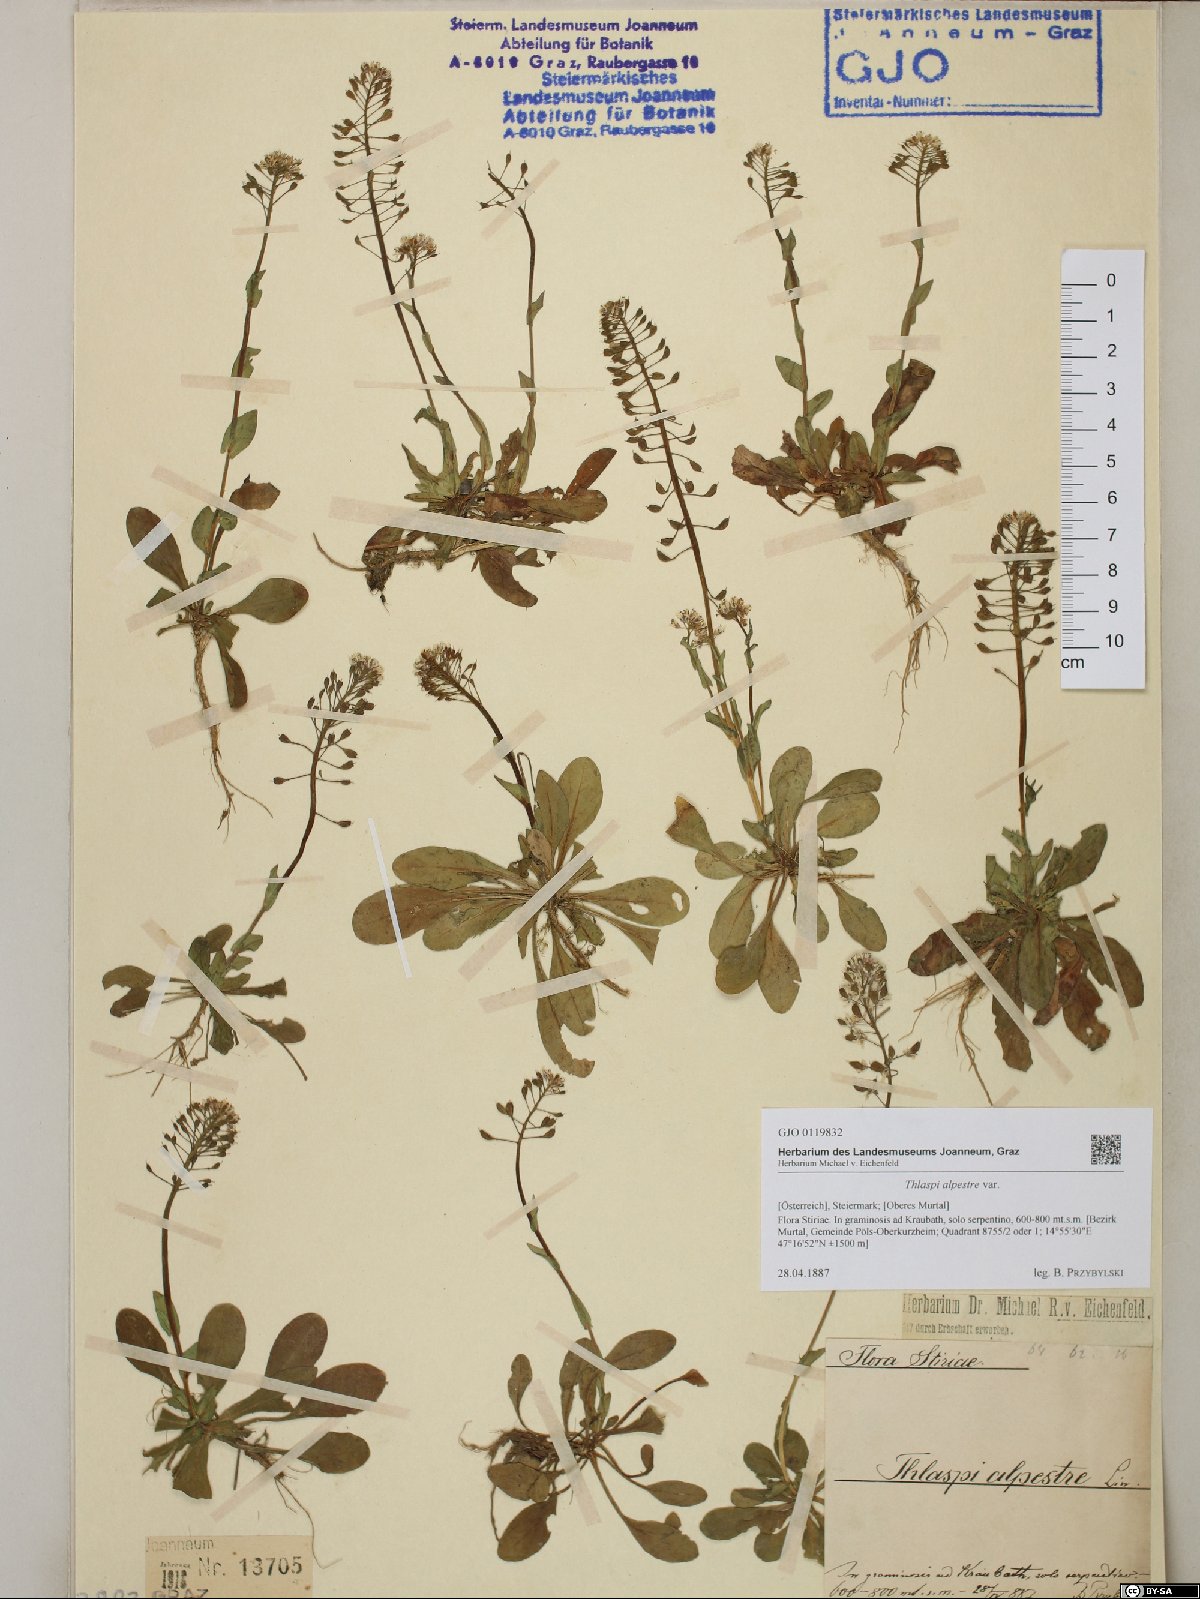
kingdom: Plantae
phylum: Tracheophyta
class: Magnoliopsida
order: Brassicales
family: Brassicaceae
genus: Noccaea
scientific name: Noccaea caerulescens
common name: Alpine pennycress
